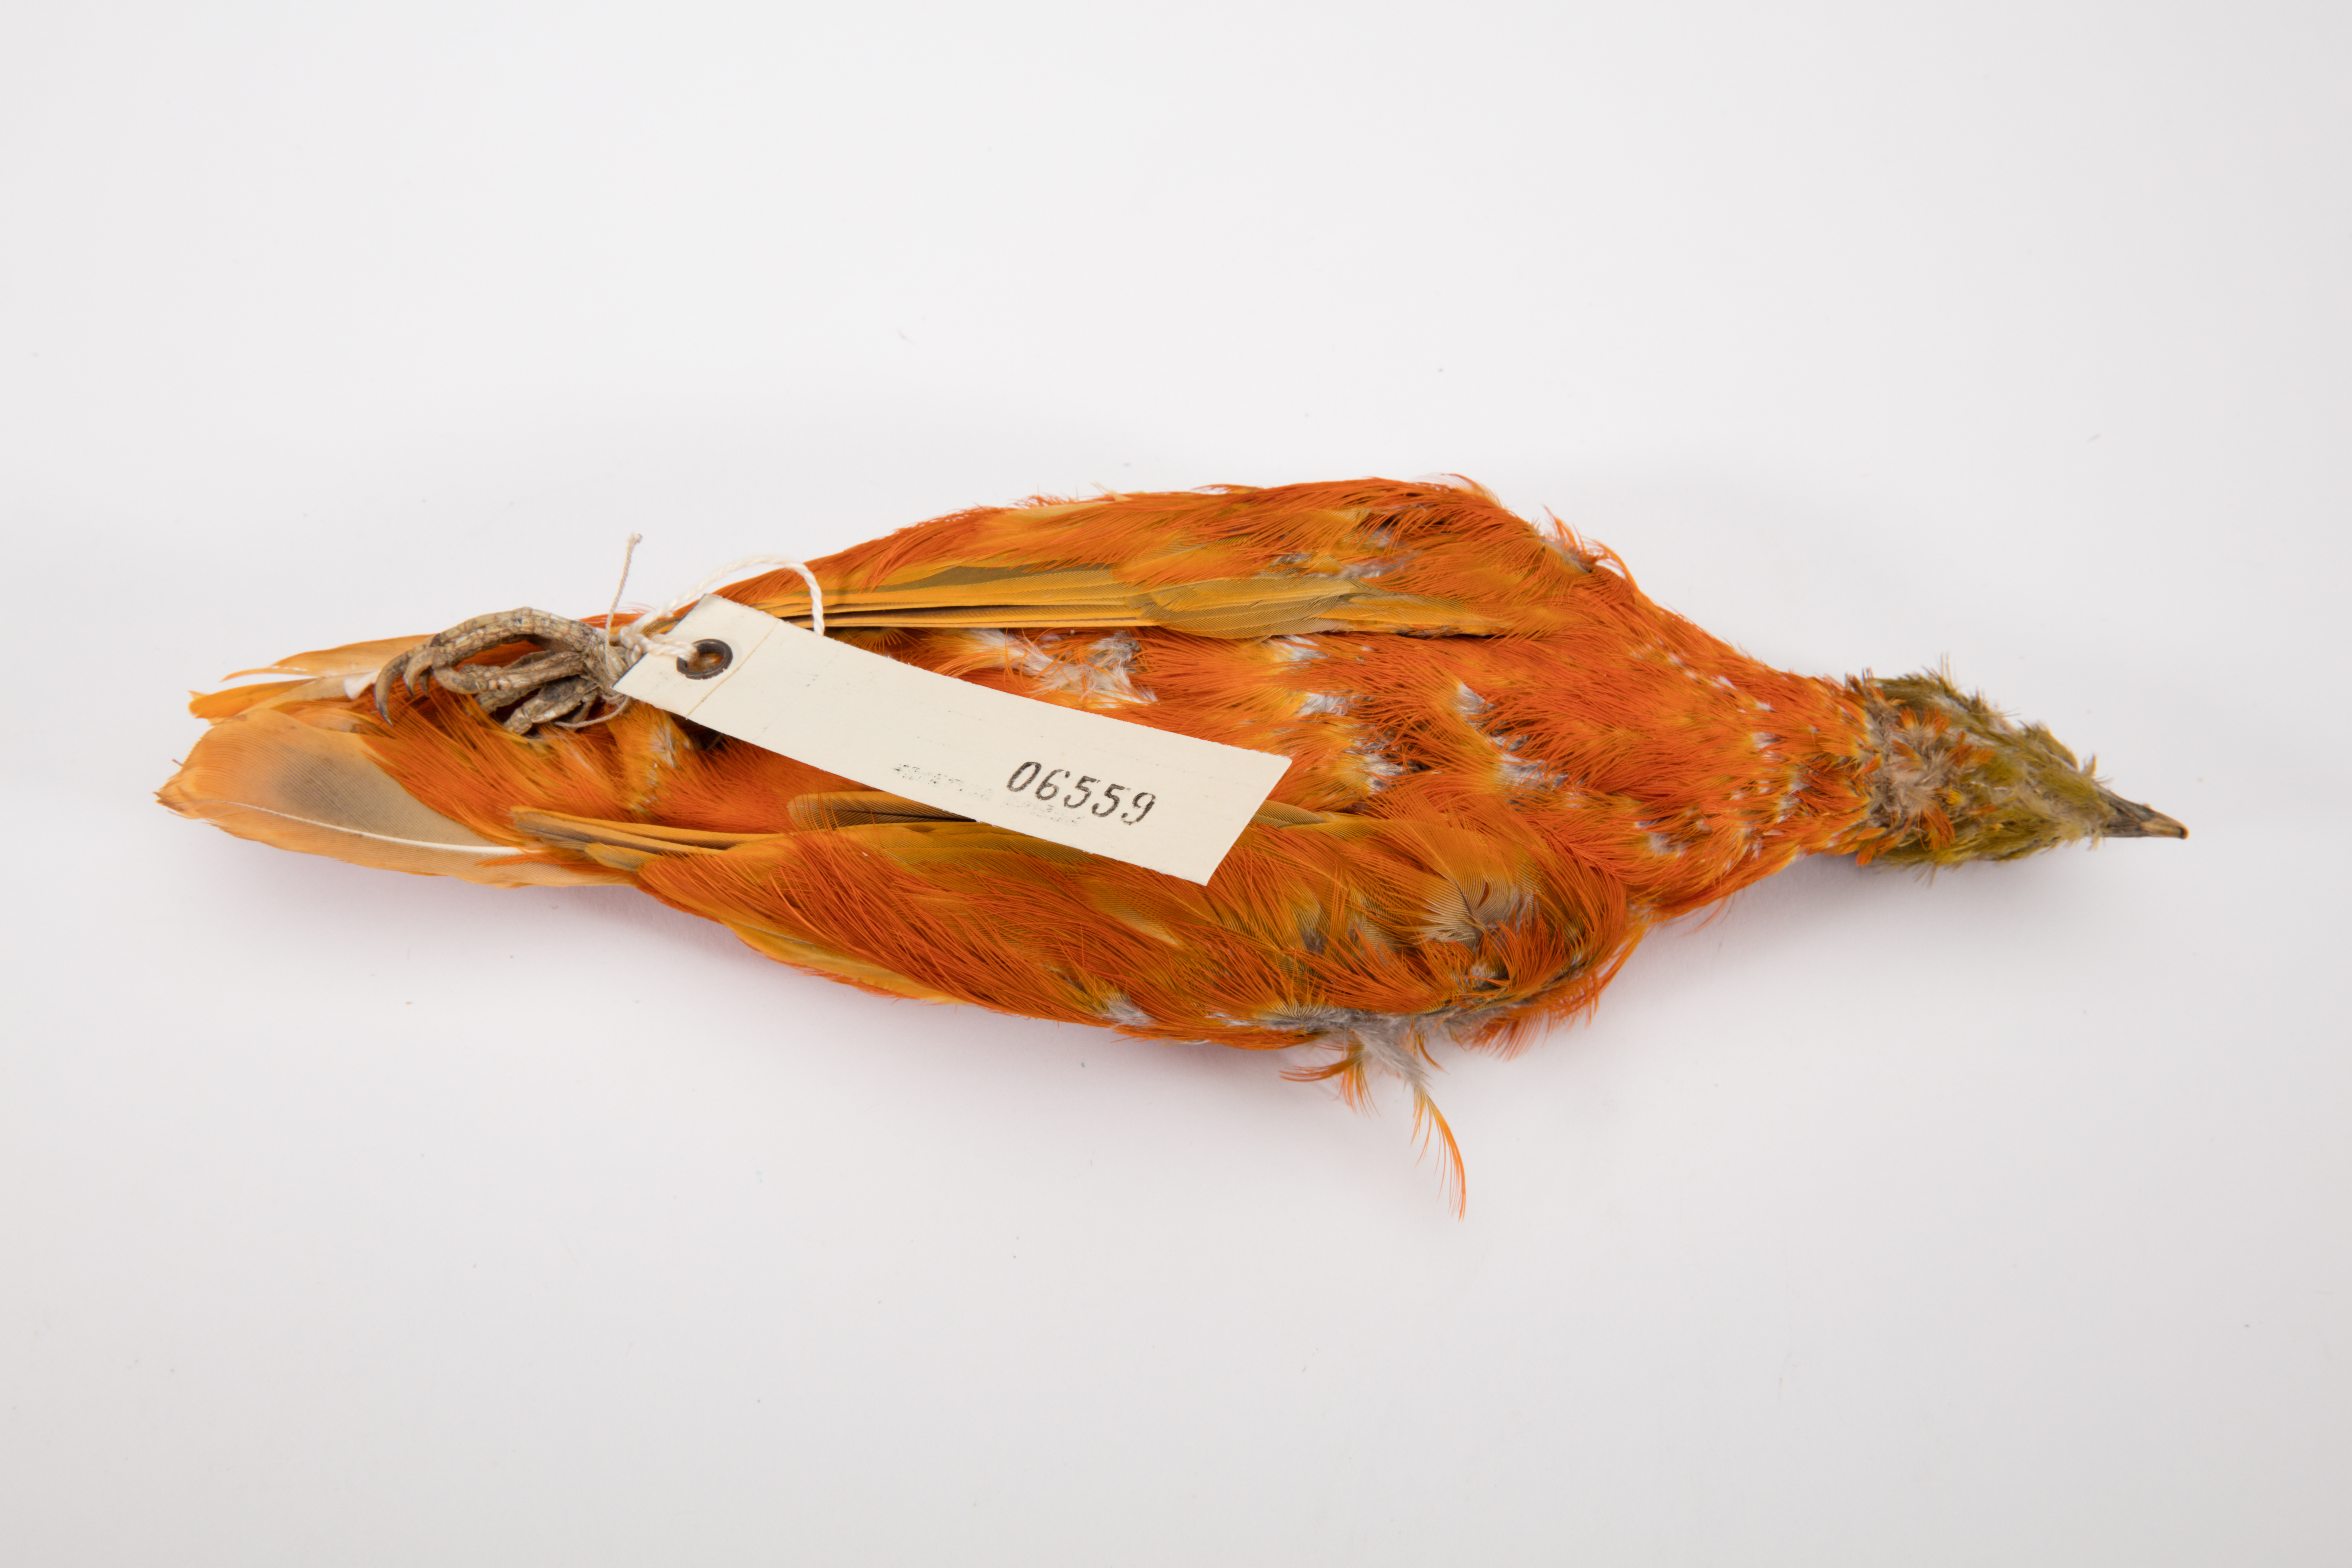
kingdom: Animalia
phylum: Chordata
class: Aves
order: Columbiformes
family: Columbidae
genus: Ptilinopus
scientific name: Ptilinopus victor
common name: Orange fruit dove
